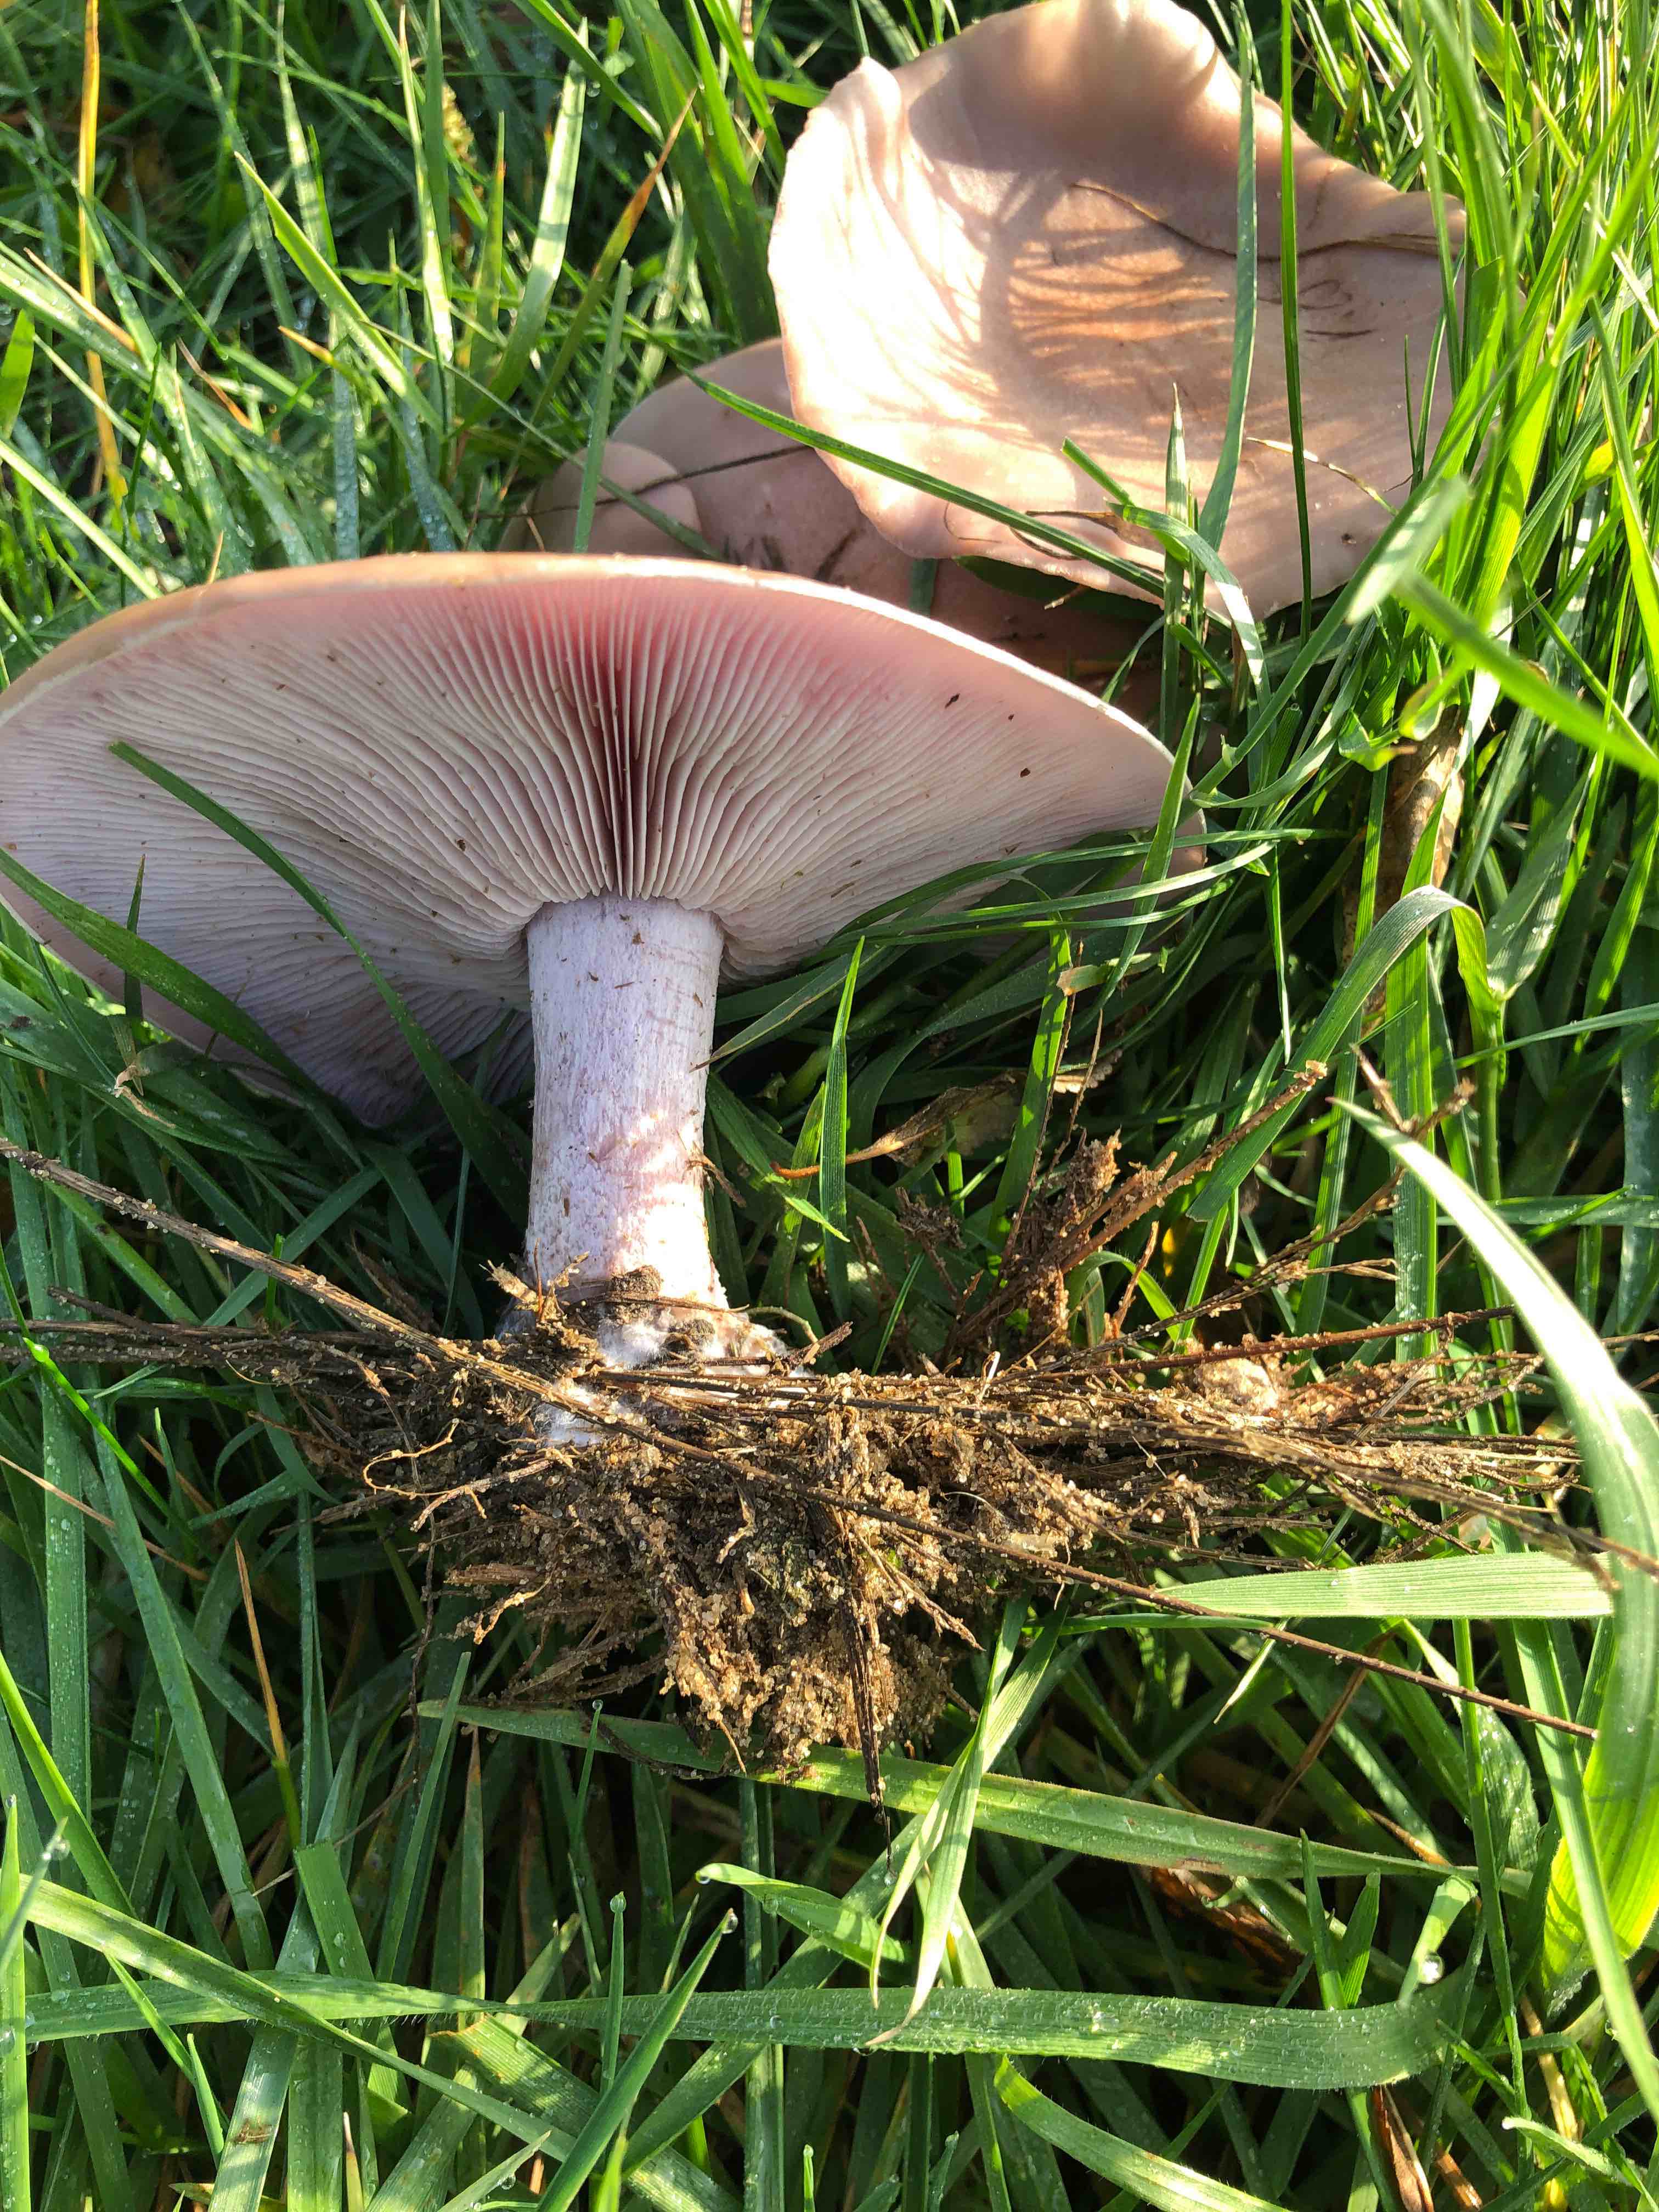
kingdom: Fungi
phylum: Basidiomycota
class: Agaricomycetes
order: Agaricales
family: Tricholomataceae
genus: Lepista
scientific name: Lepista personata
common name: bleg hekseringshat
